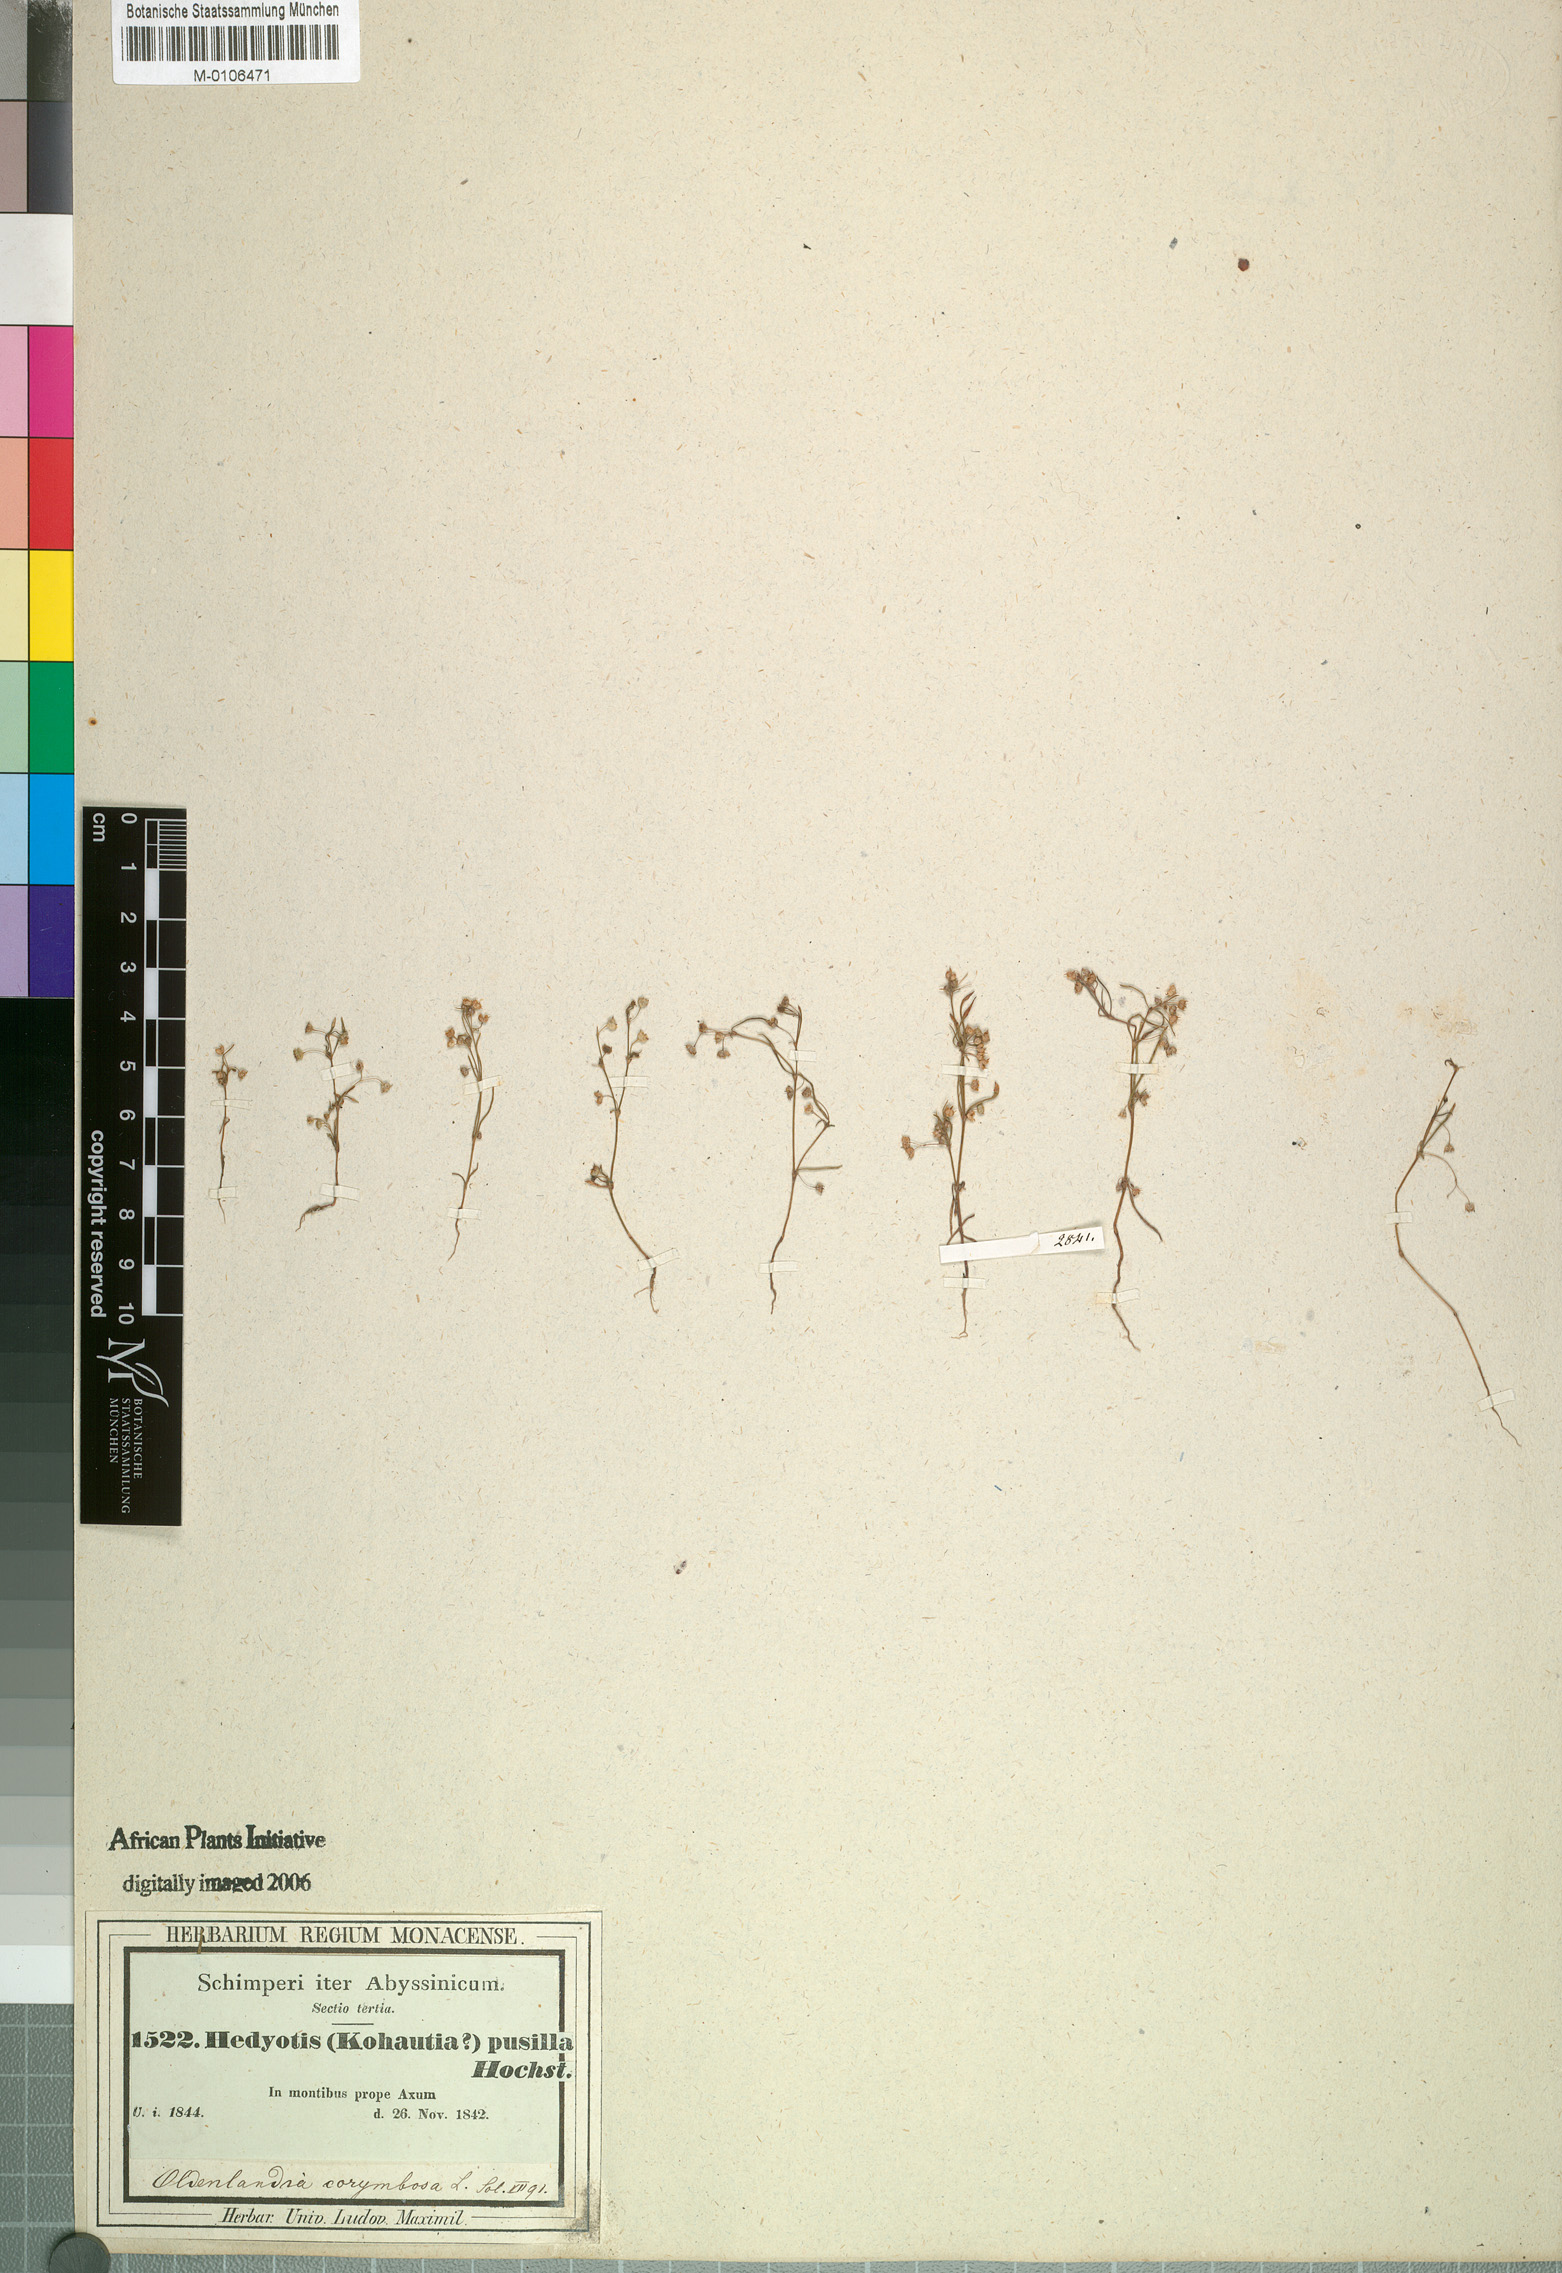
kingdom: Plantae
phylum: Tracheophyta
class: Magnoliopsida
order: Gentianales
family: Rubiaceae
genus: Oldenlandia
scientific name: Oldenlandia corymbosa
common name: Flat-top mille graines
